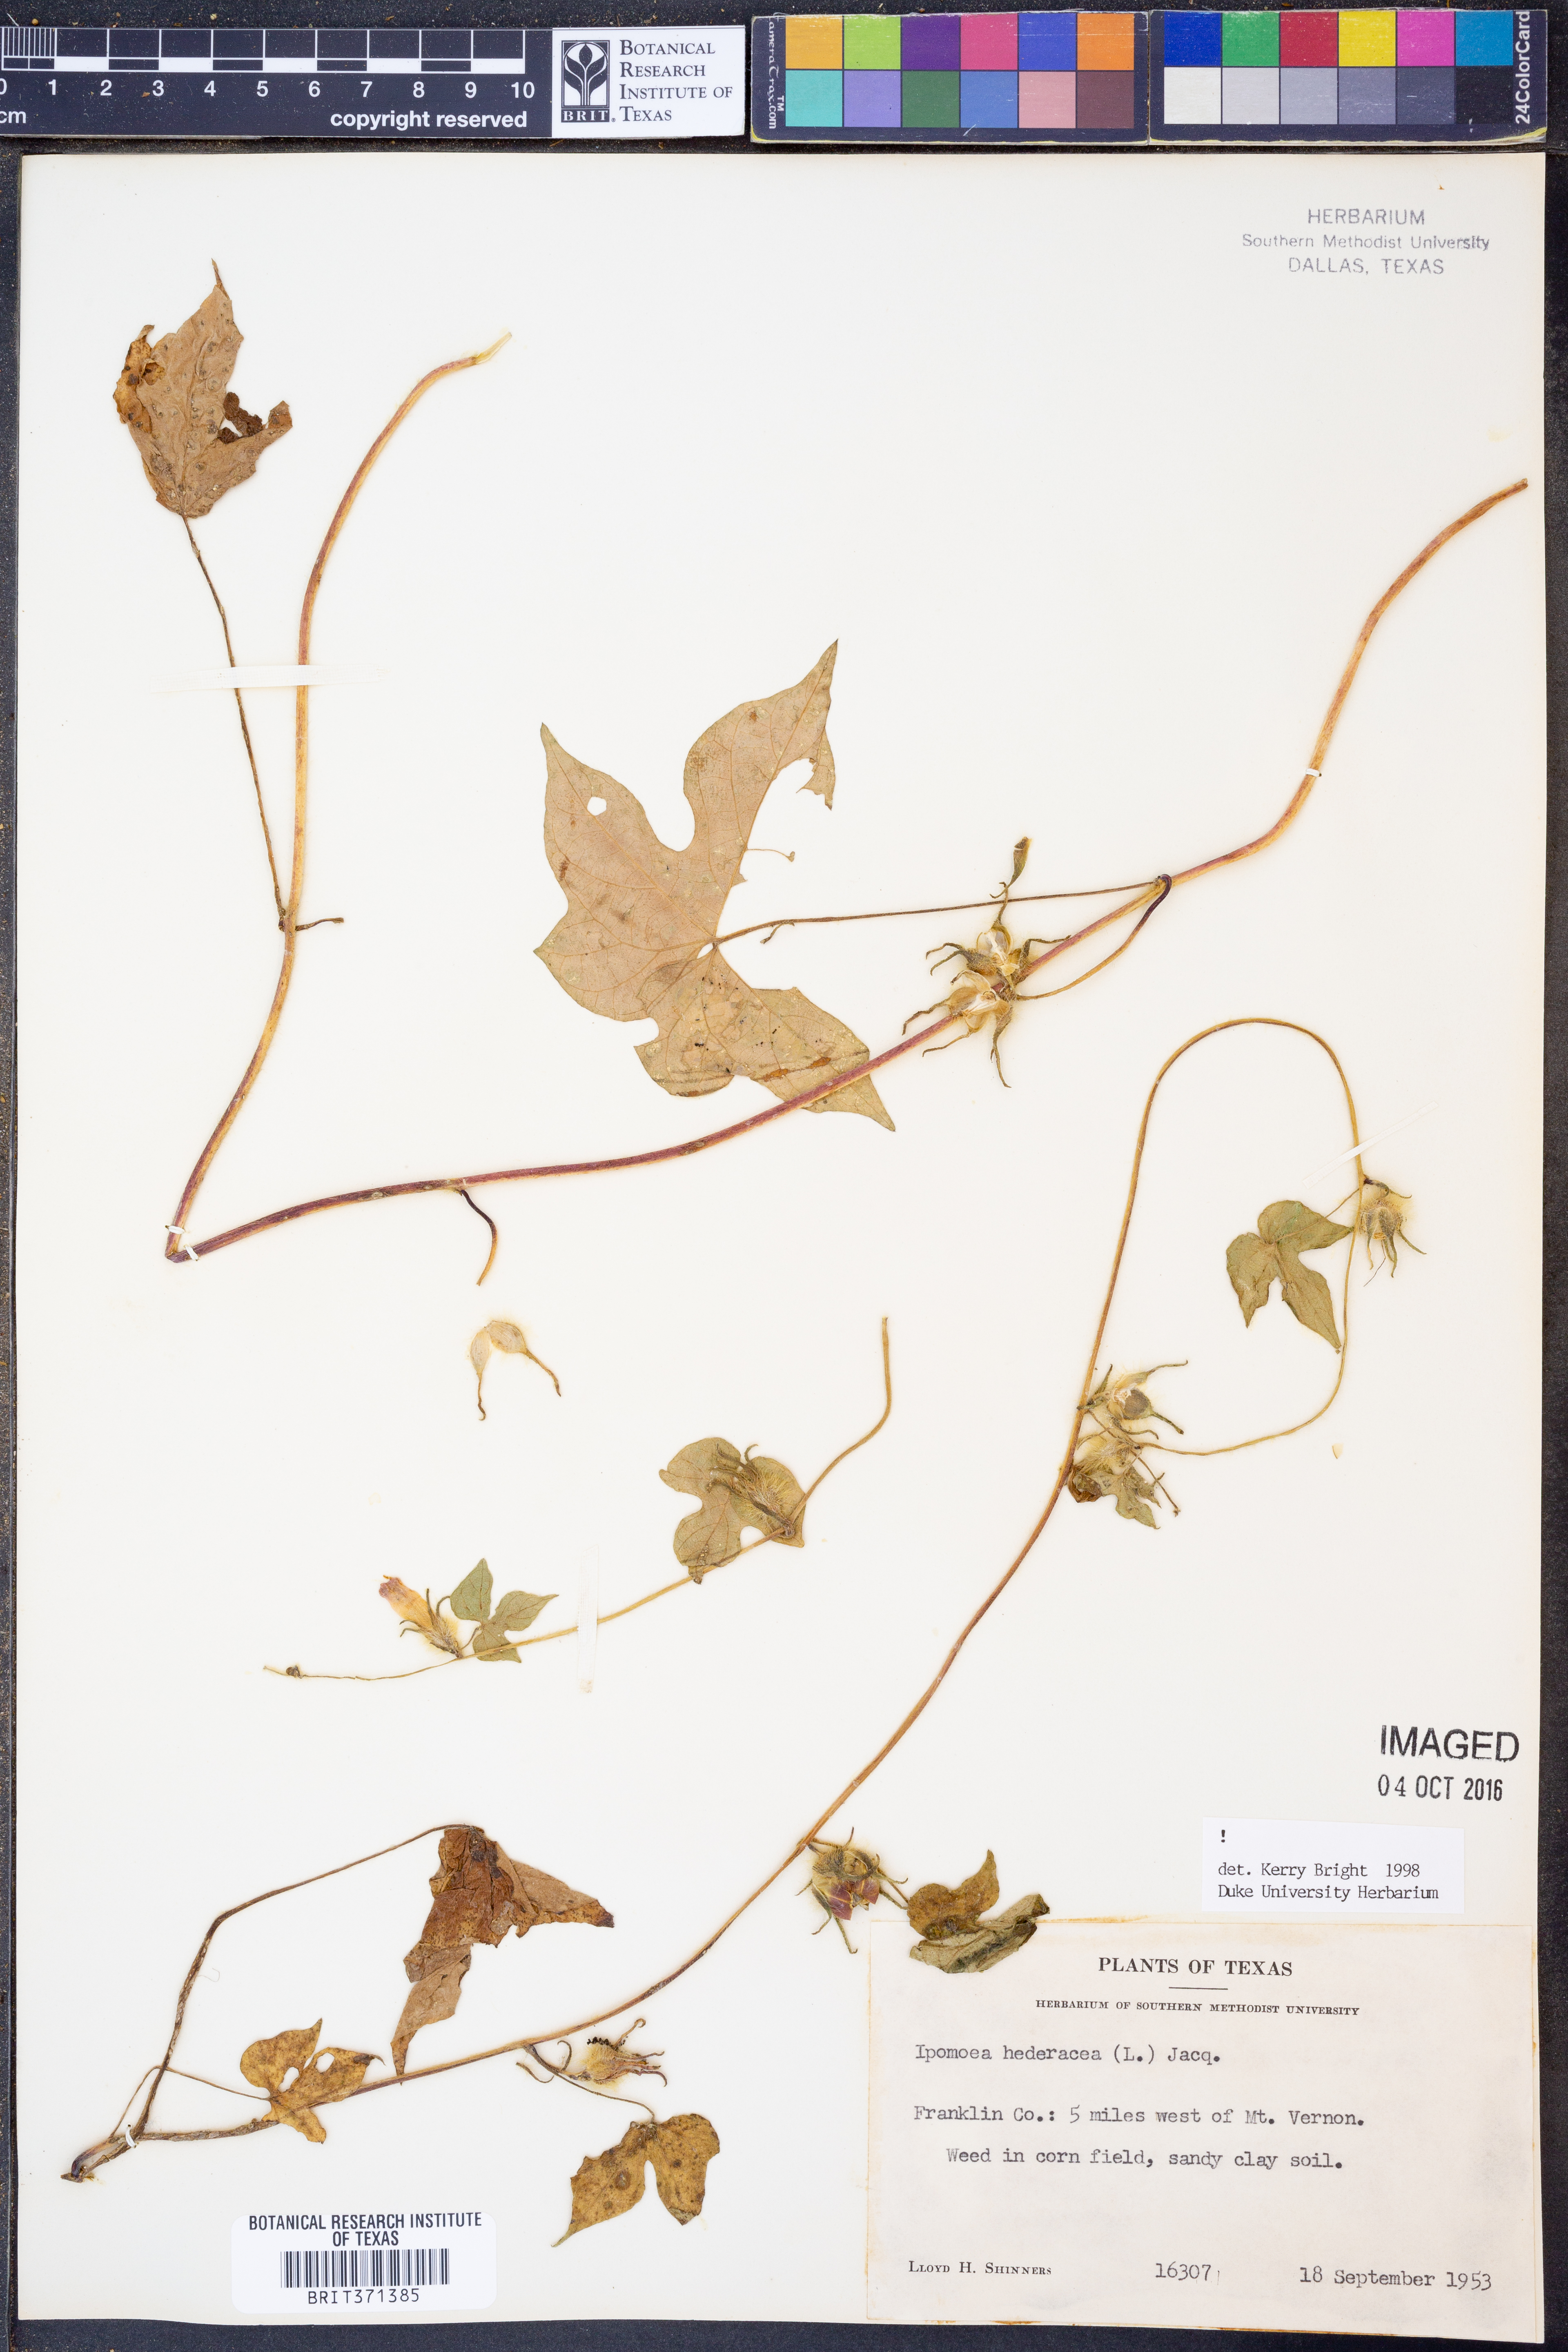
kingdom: Plantae
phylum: Tracheophyta
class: Magnoliopsida
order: Solanales
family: Convolvulaceae
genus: Ipomoea
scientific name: Ipomoea hederacea
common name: Ivy-leaved morning-glory
